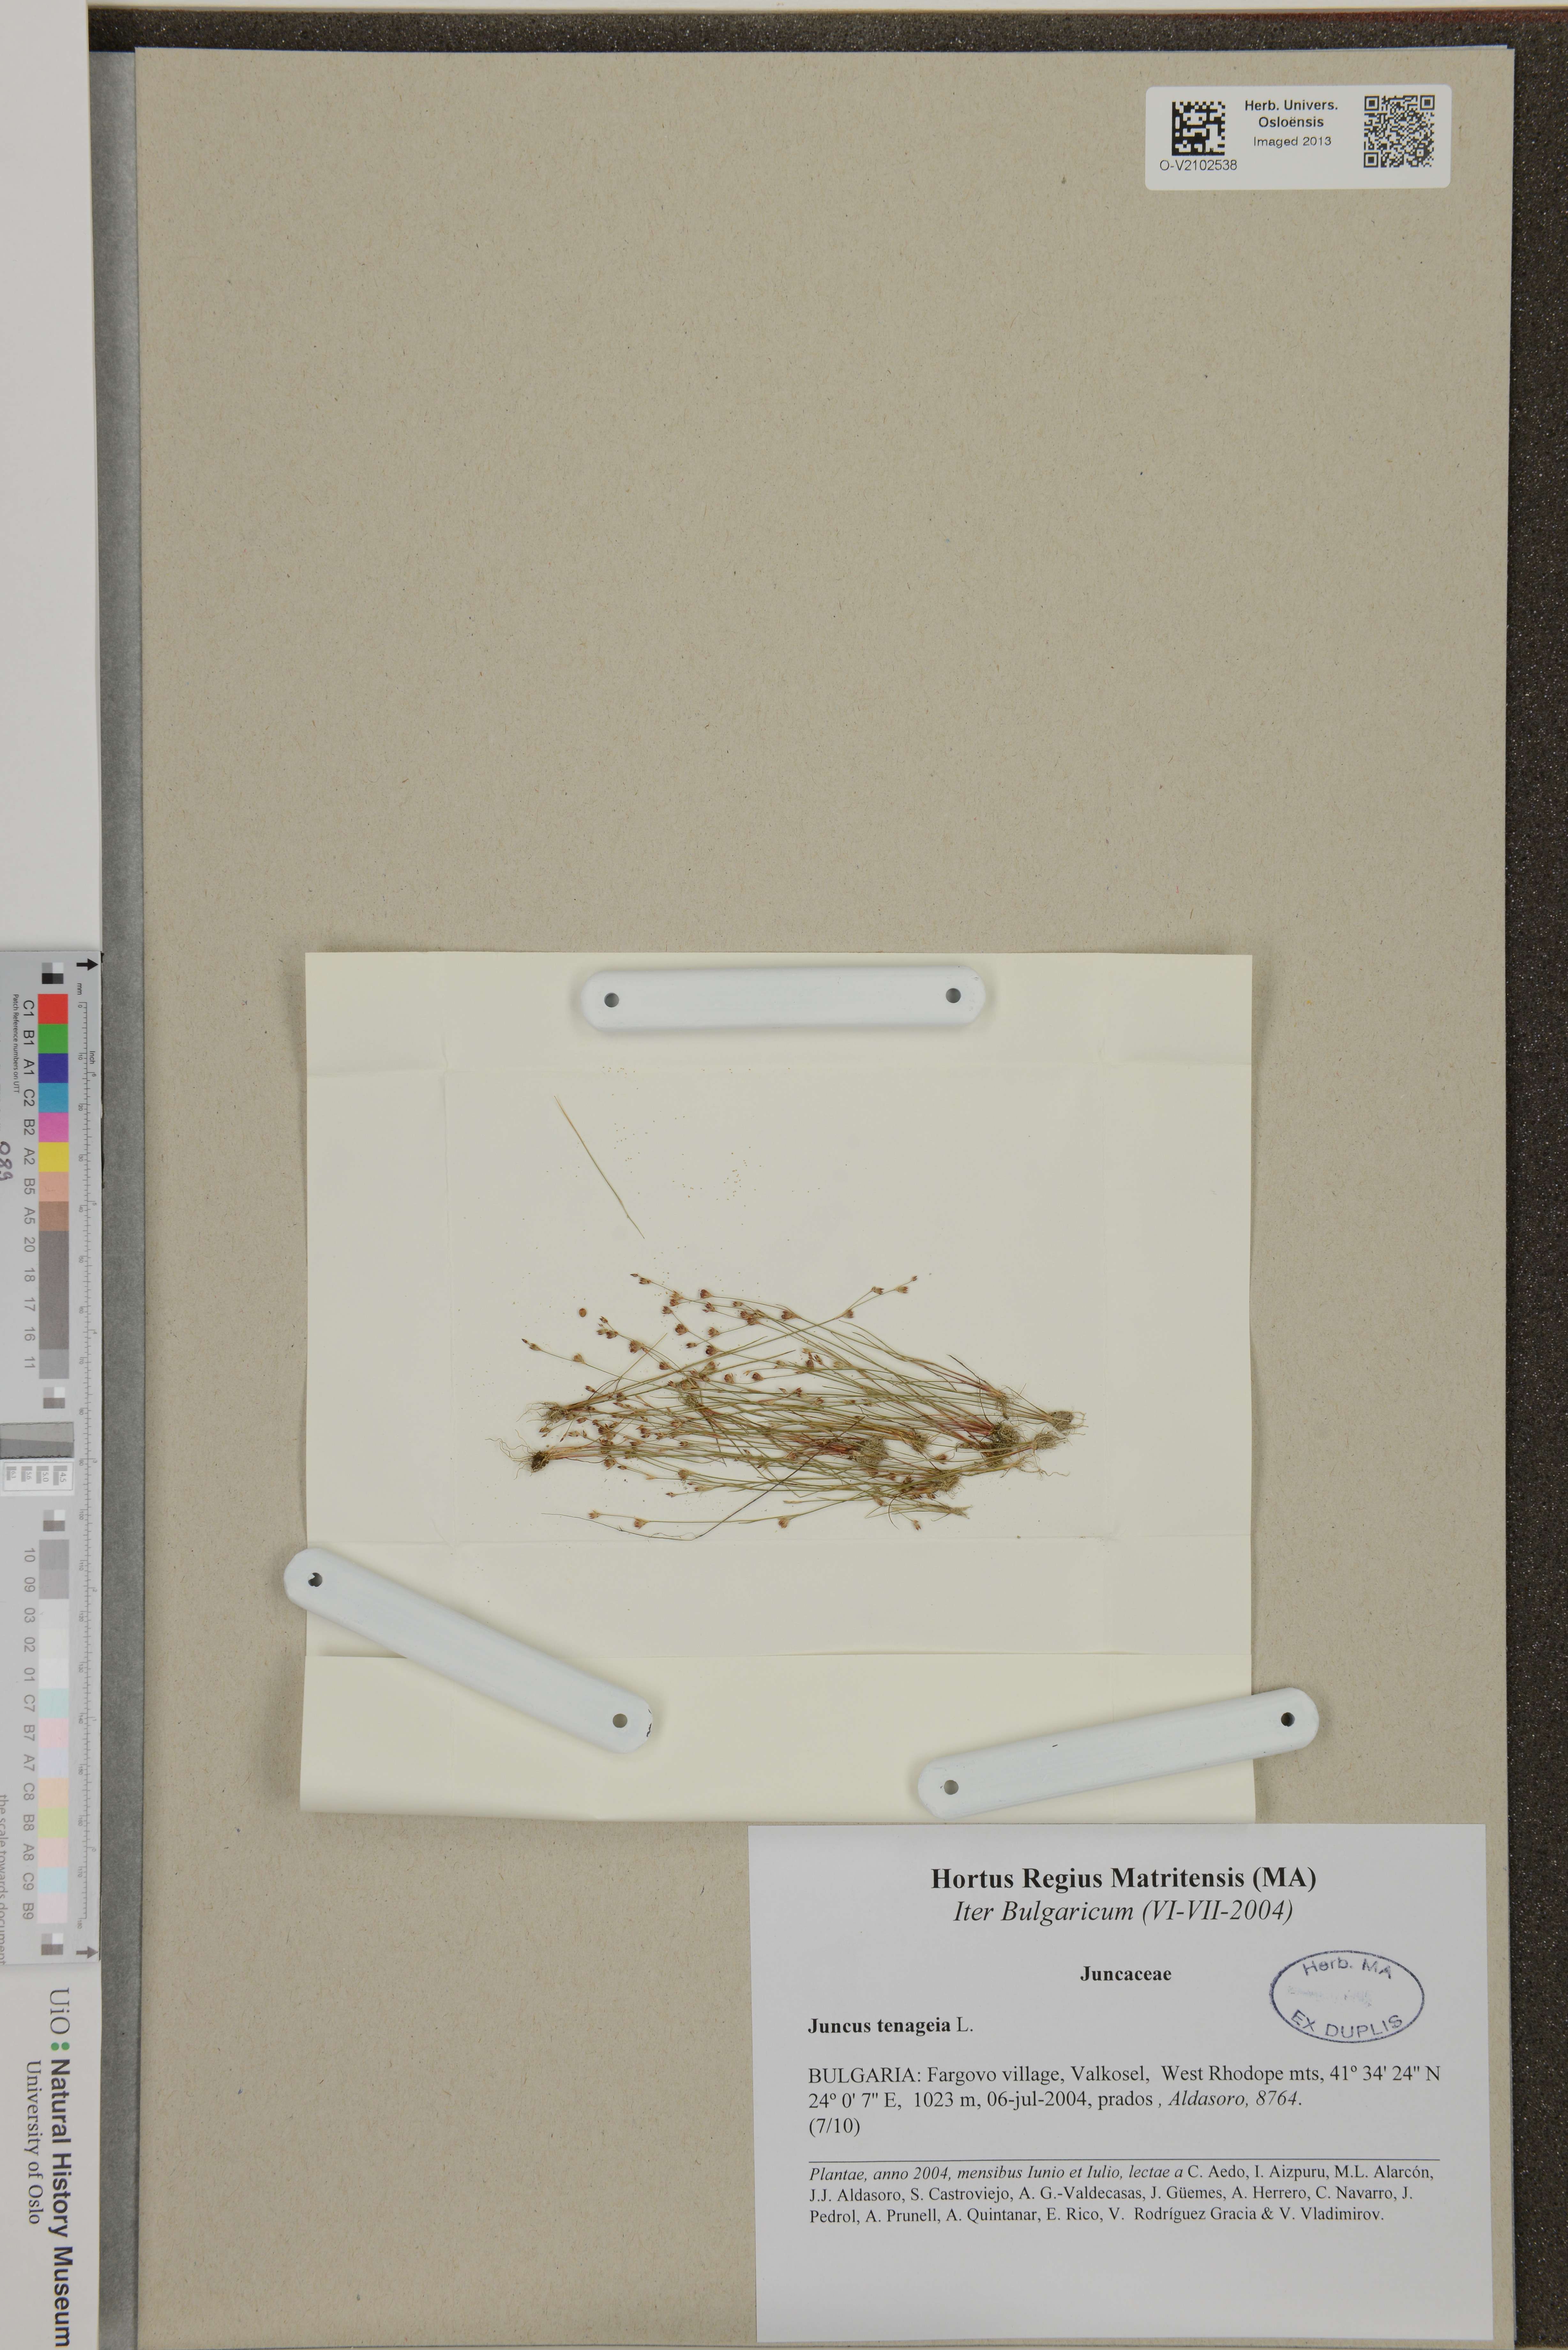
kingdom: Plantae
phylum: Tracheophyta
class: Liliopsida
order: Poales
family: Juncaceae
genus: Juncus
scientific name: Juncus tenageia
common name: Sand rush
